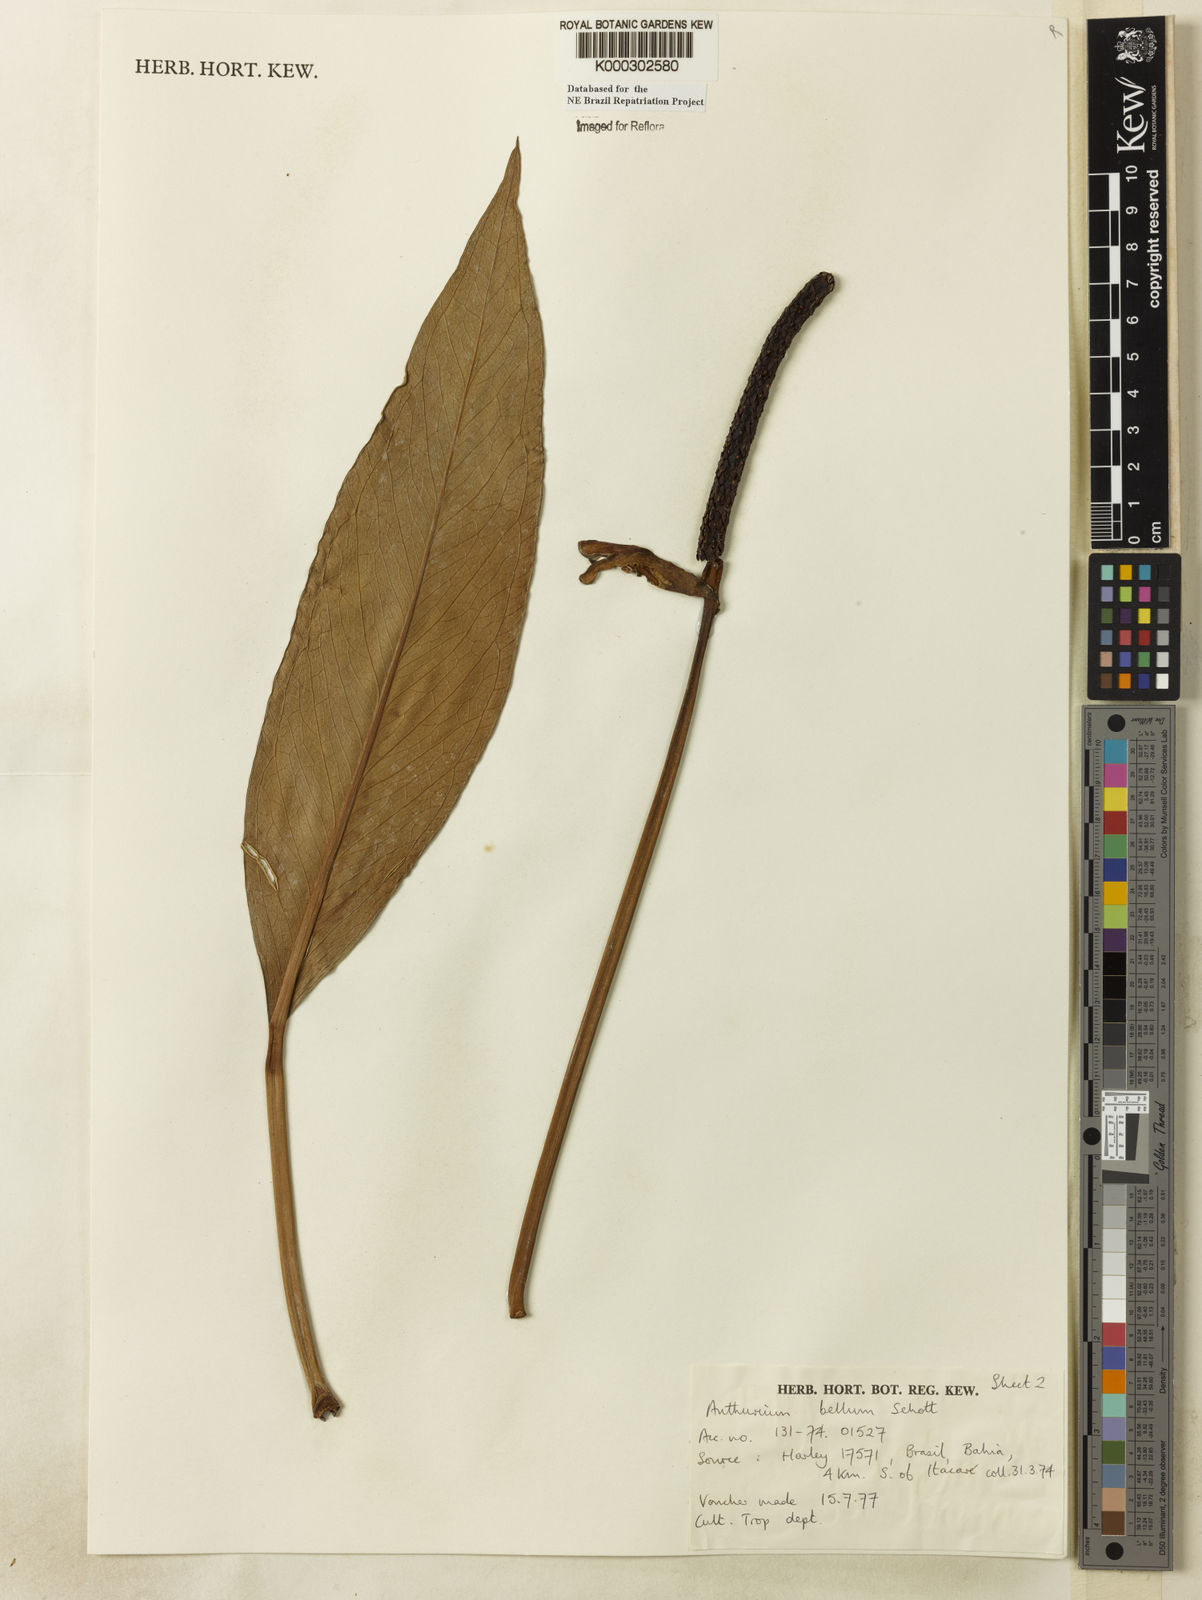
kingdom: Plantae
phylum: Tracheophyta
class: Liliopsida
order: Alismatales
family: Araceae
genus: Anthurium
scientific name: Anthurium bellum
